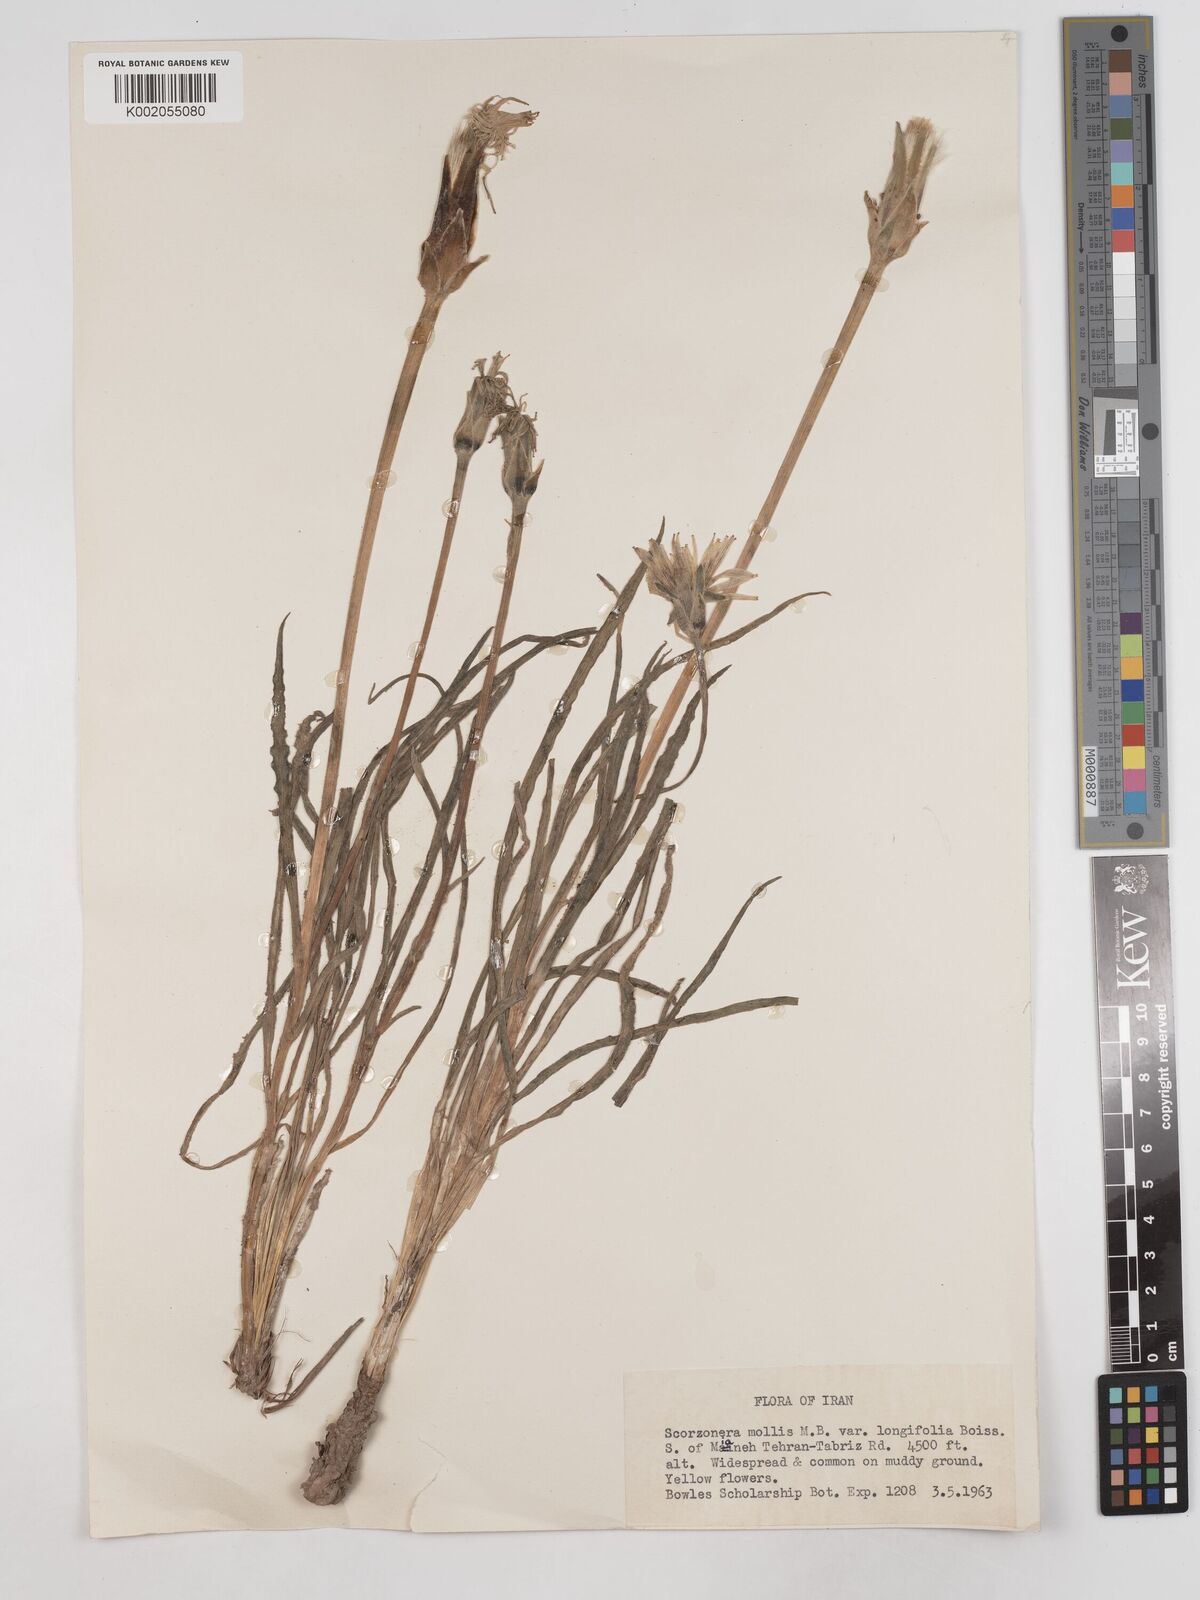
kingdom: Plantae
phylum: Tracheophyta
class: Magnoliopsida
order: Asterales
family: Asteraceae
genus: Candollea
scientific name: Candollea mollis
